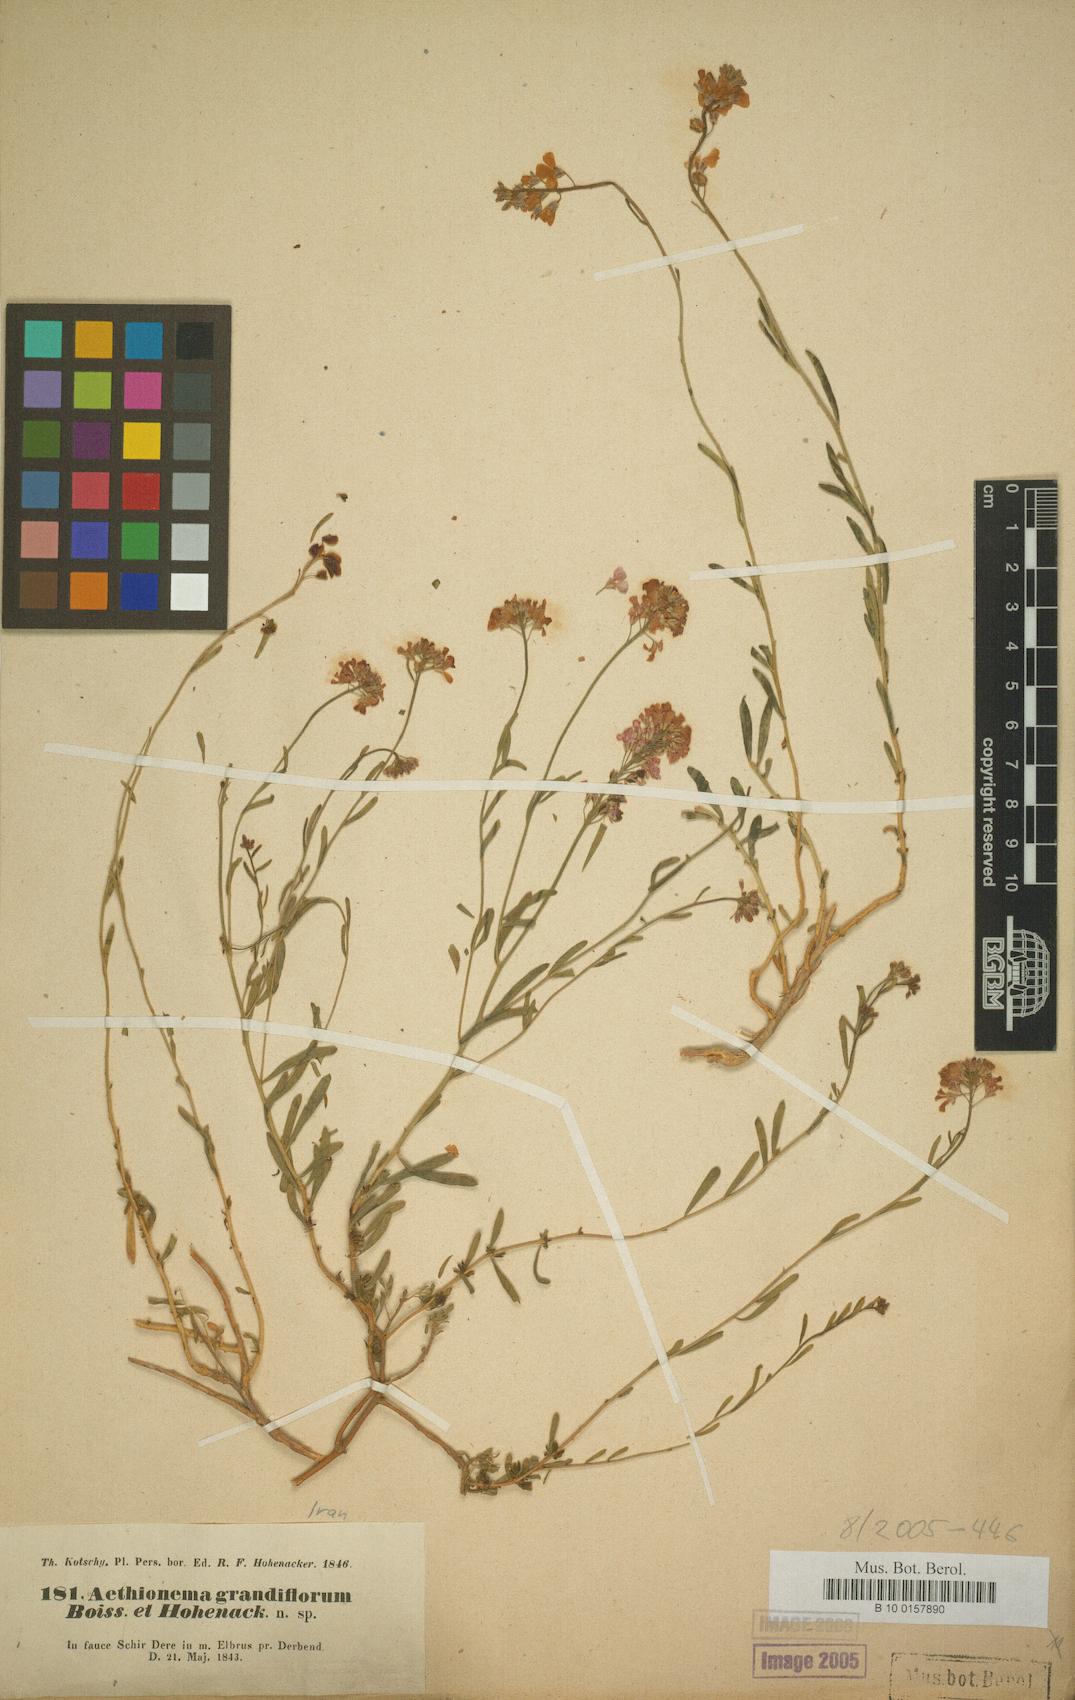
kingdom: Plantae
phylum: Tracheophyta
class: Magnoliopsida
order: Brassicales
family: Brassicaceae
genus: Aethionema
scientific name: Aethionema grandiflorum
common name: Persian stonecress
